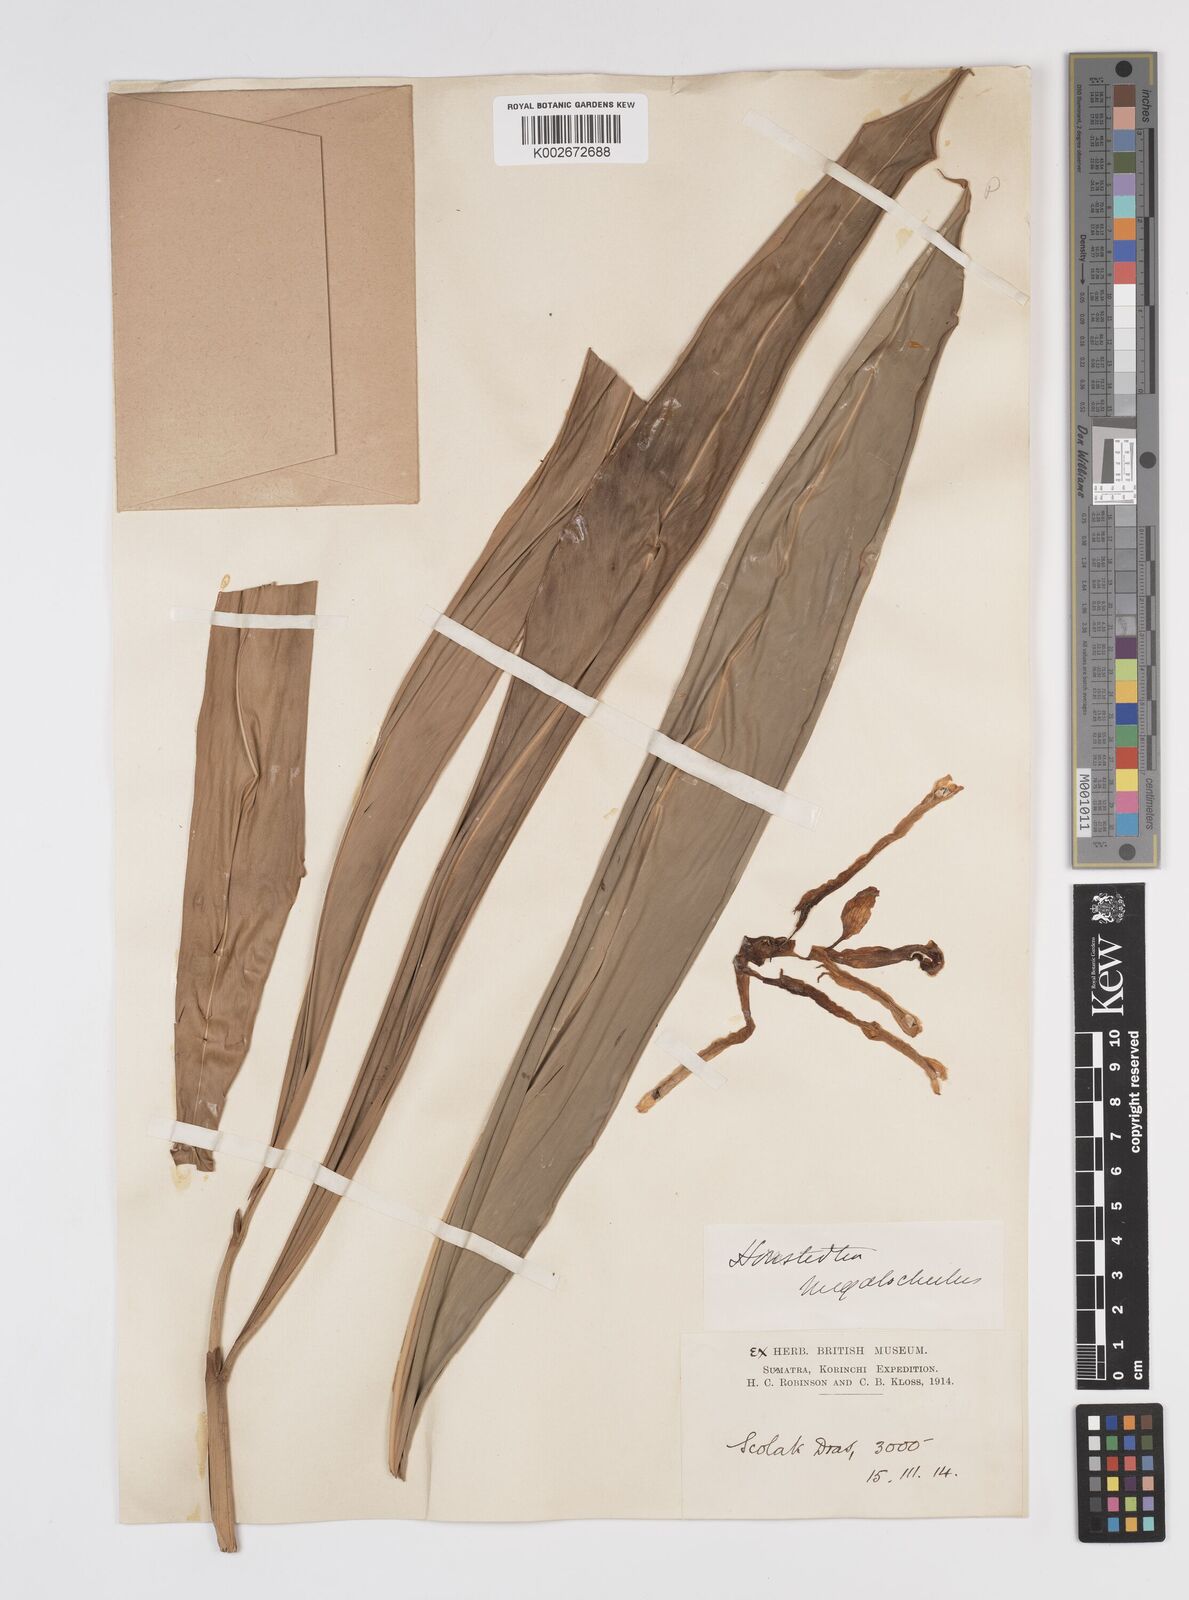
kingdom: Plantae
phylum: Tracheophyta
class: Liliopsida
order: Zingiberales
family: Zingiberaceae
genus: Etlingera
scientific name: Etlingera littoralis
